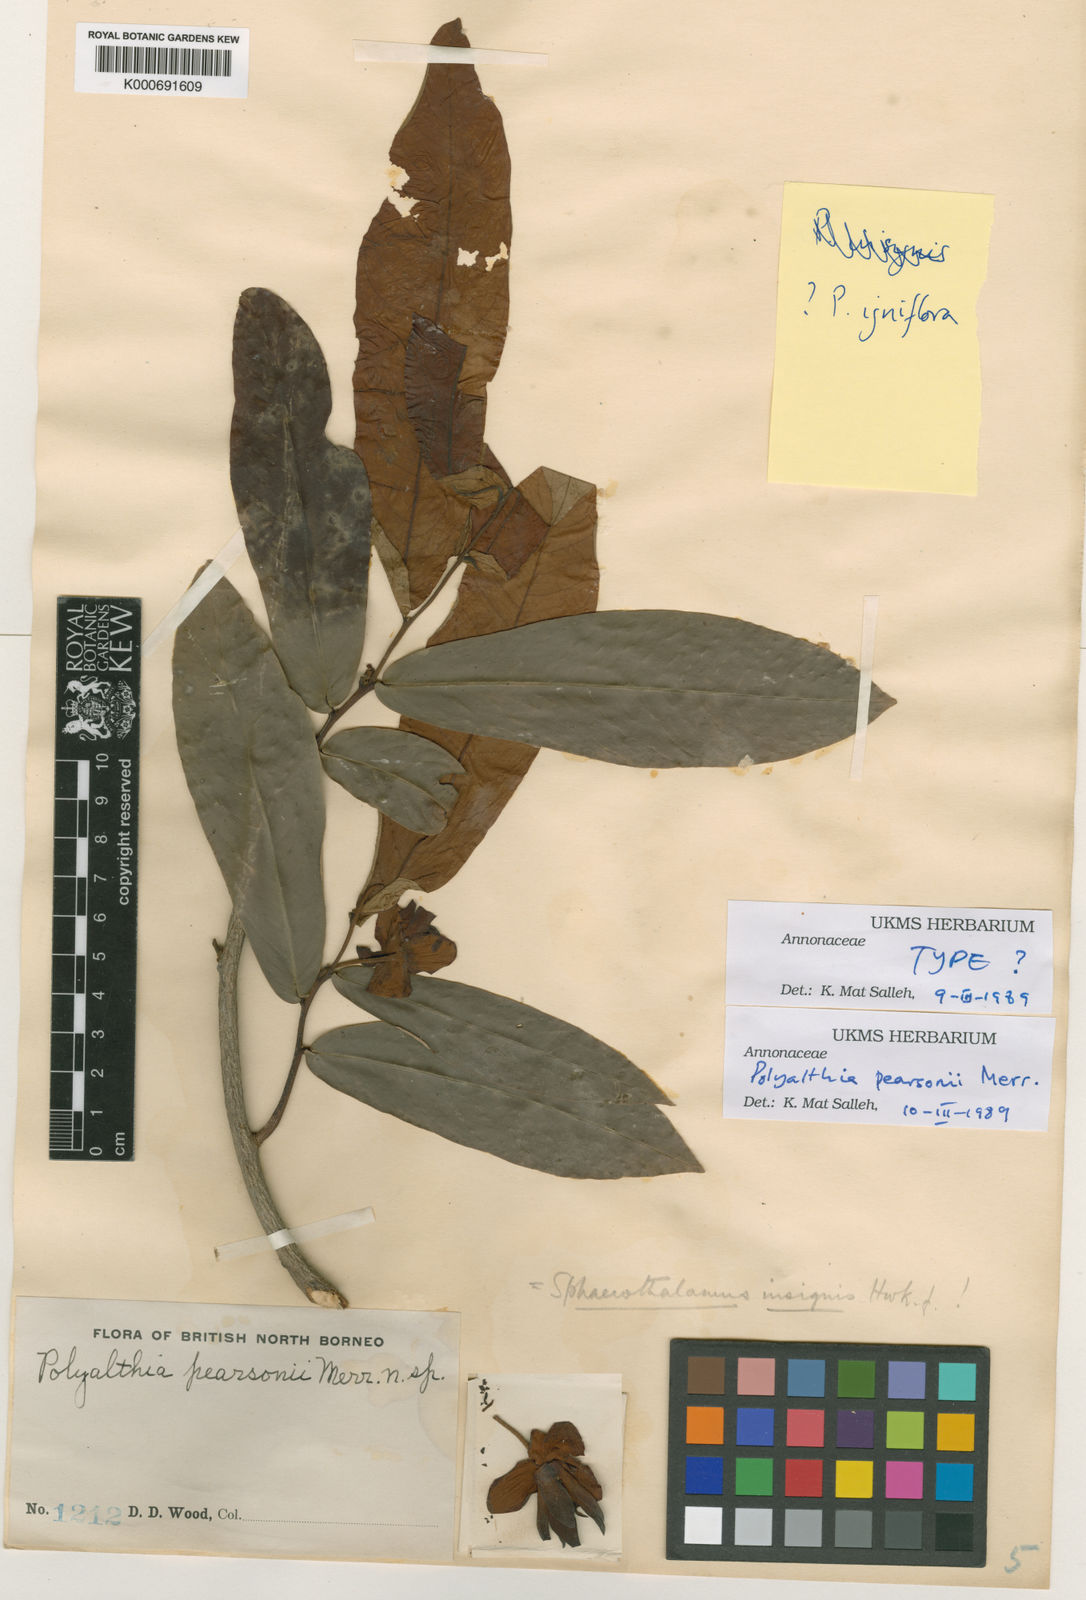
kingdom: Plantae
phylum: Tracheophyta
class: Magnoliopsida
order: Magnoliales
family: Annonaceae
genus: Polyalthia
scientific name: Polyalthia
